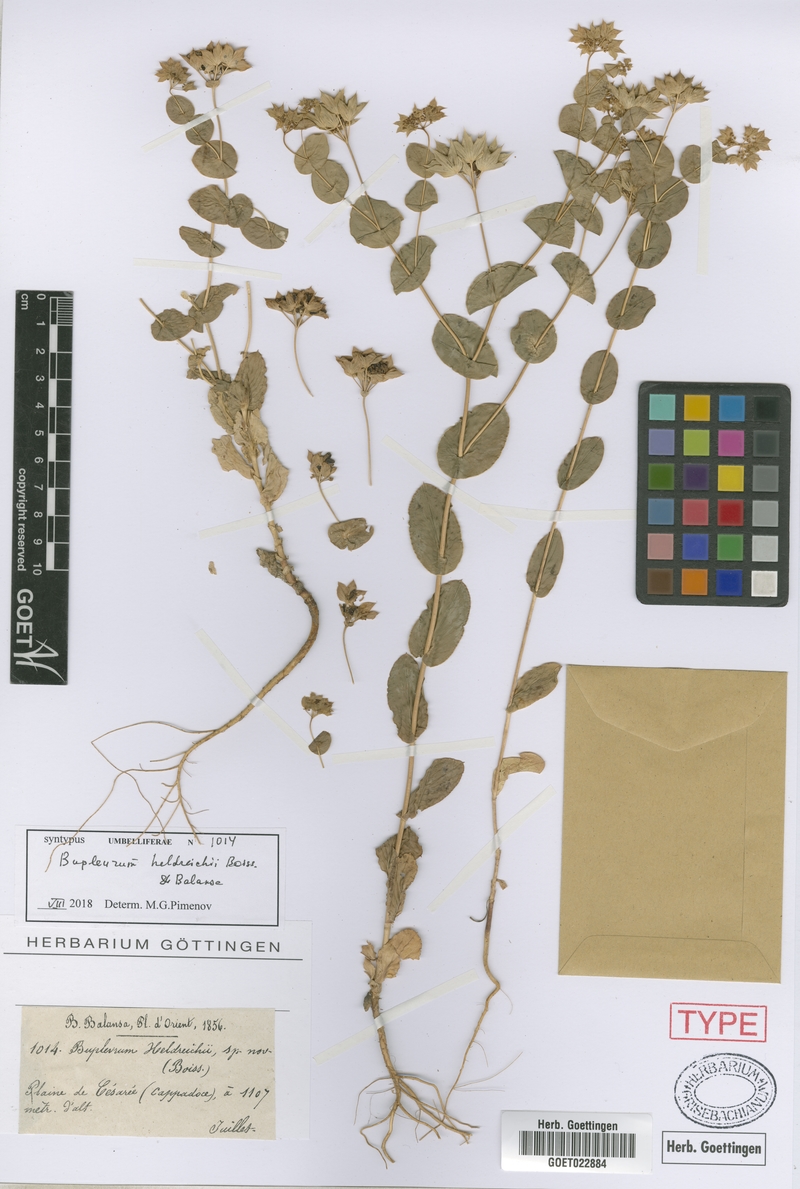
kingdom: Plantae
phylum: Tracheophyta
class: Magnoliopsida
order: Apiales
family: Apiaceae
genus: Bupleurum
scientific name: Bupleurum heldreichii
